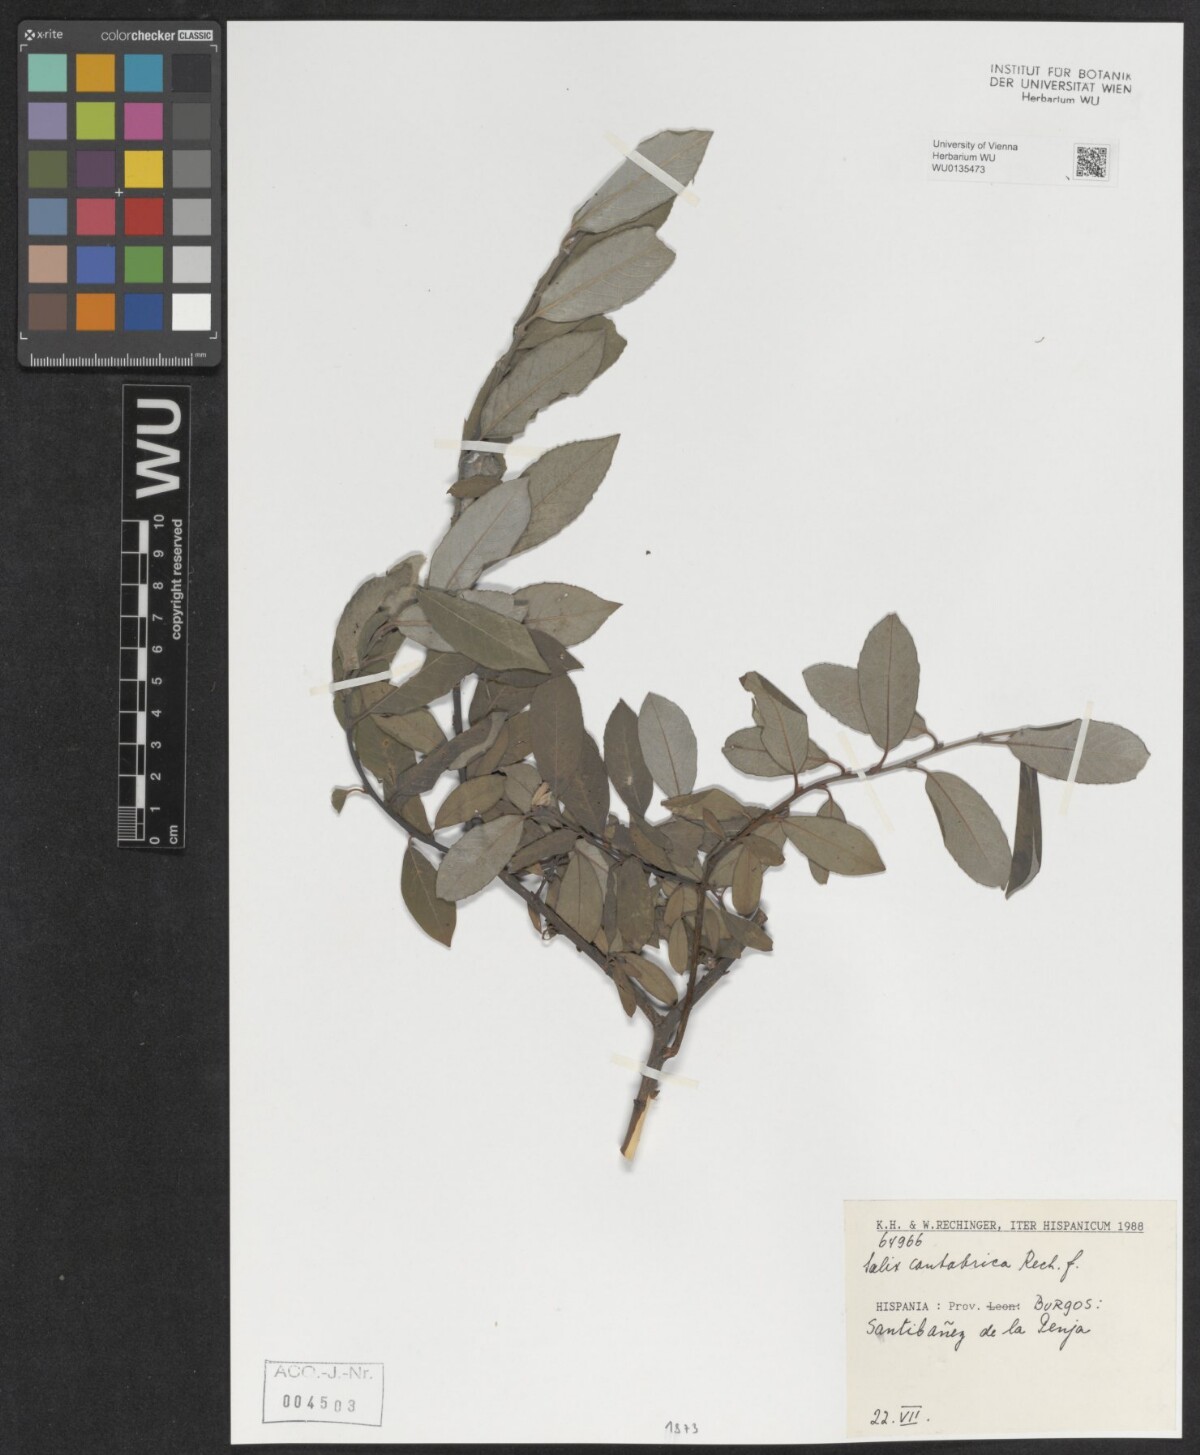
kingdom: Plantae
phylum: Tracheophyta
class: Magnoliopsida
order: Malpighiales
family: Salicaceae
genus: Salix
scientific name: Salix cantabrica
